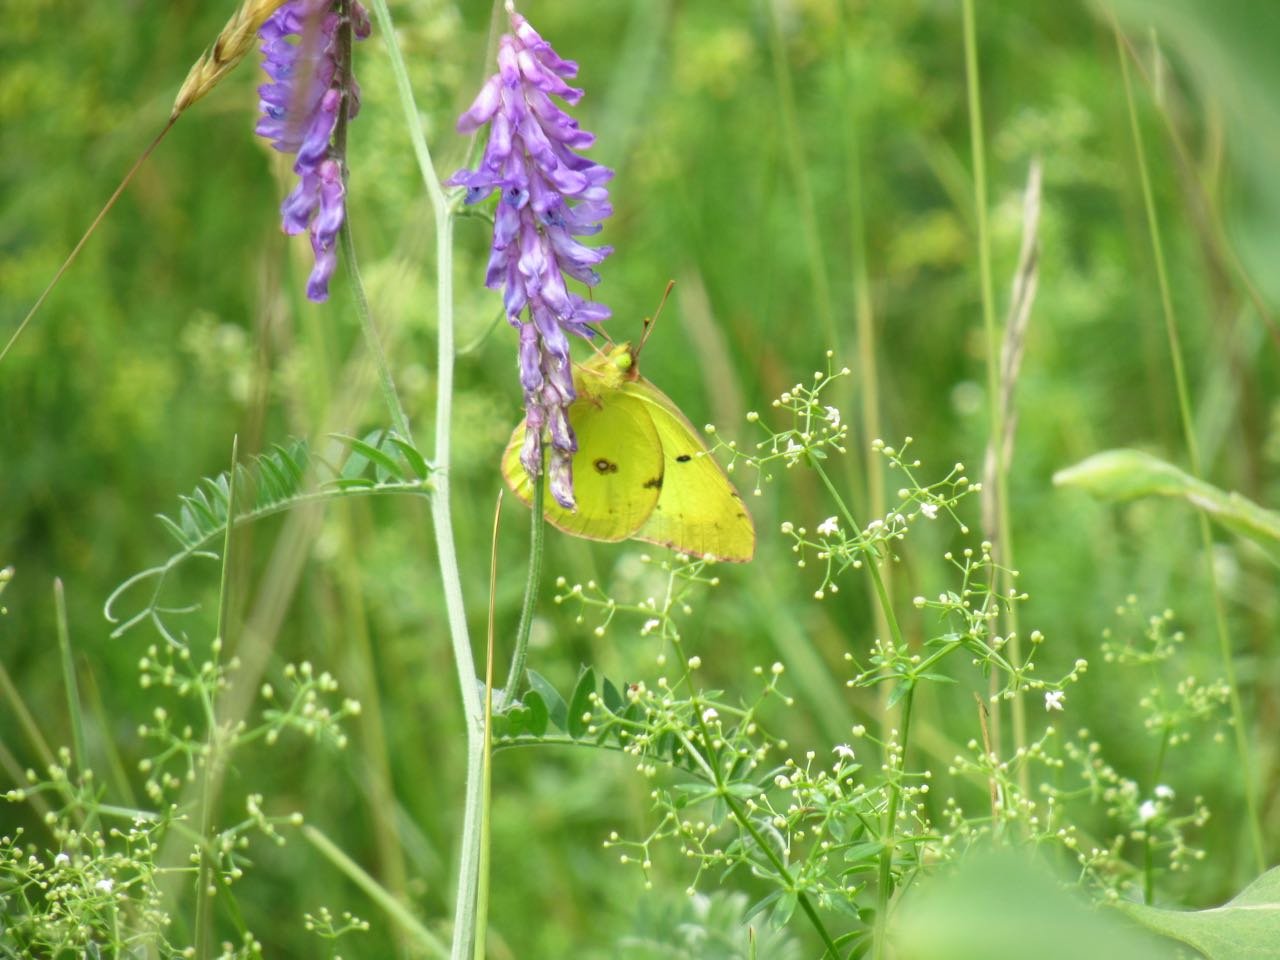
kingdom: Animalia
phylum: Arthropoda
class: Insecta
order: Lepidoptera
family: Pieridae
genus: Colias
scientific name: Colias philodice
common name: Clouded Sulphur
